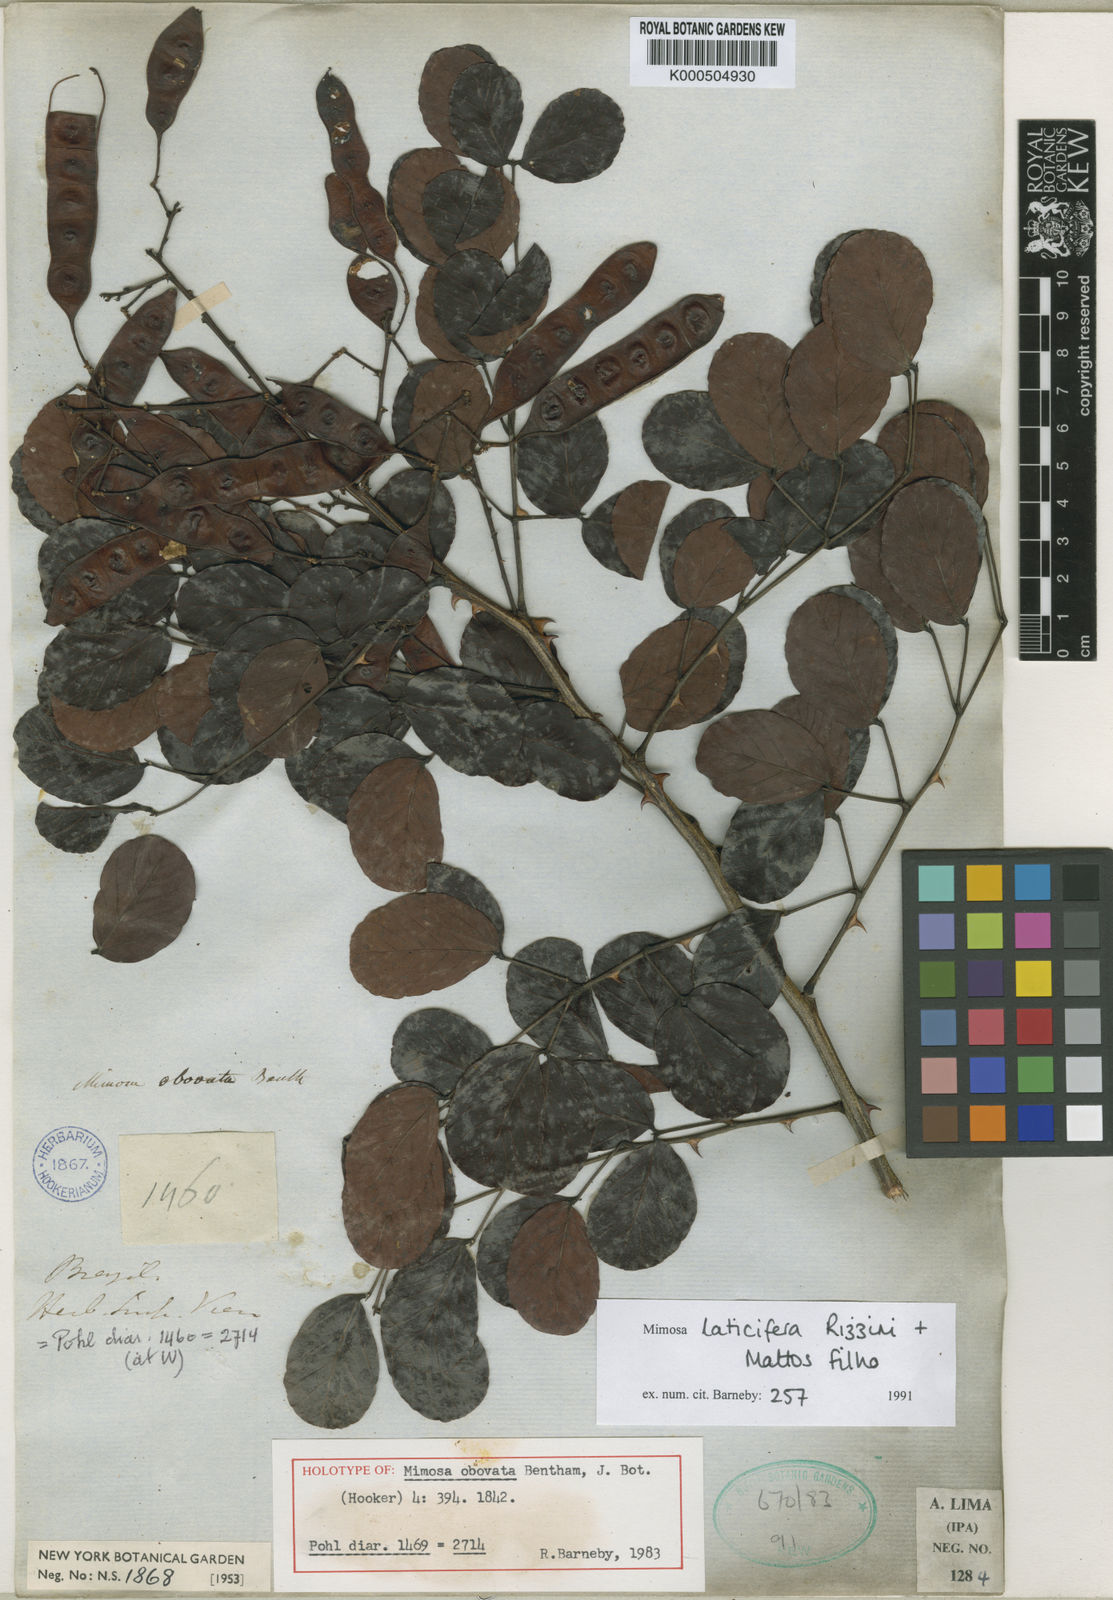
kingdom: Plantae
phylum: Tracheophyta
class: Magnoliopsida
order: Fabales
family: Fabaceae
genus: Mimosa
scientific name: Mimosa laticifera
